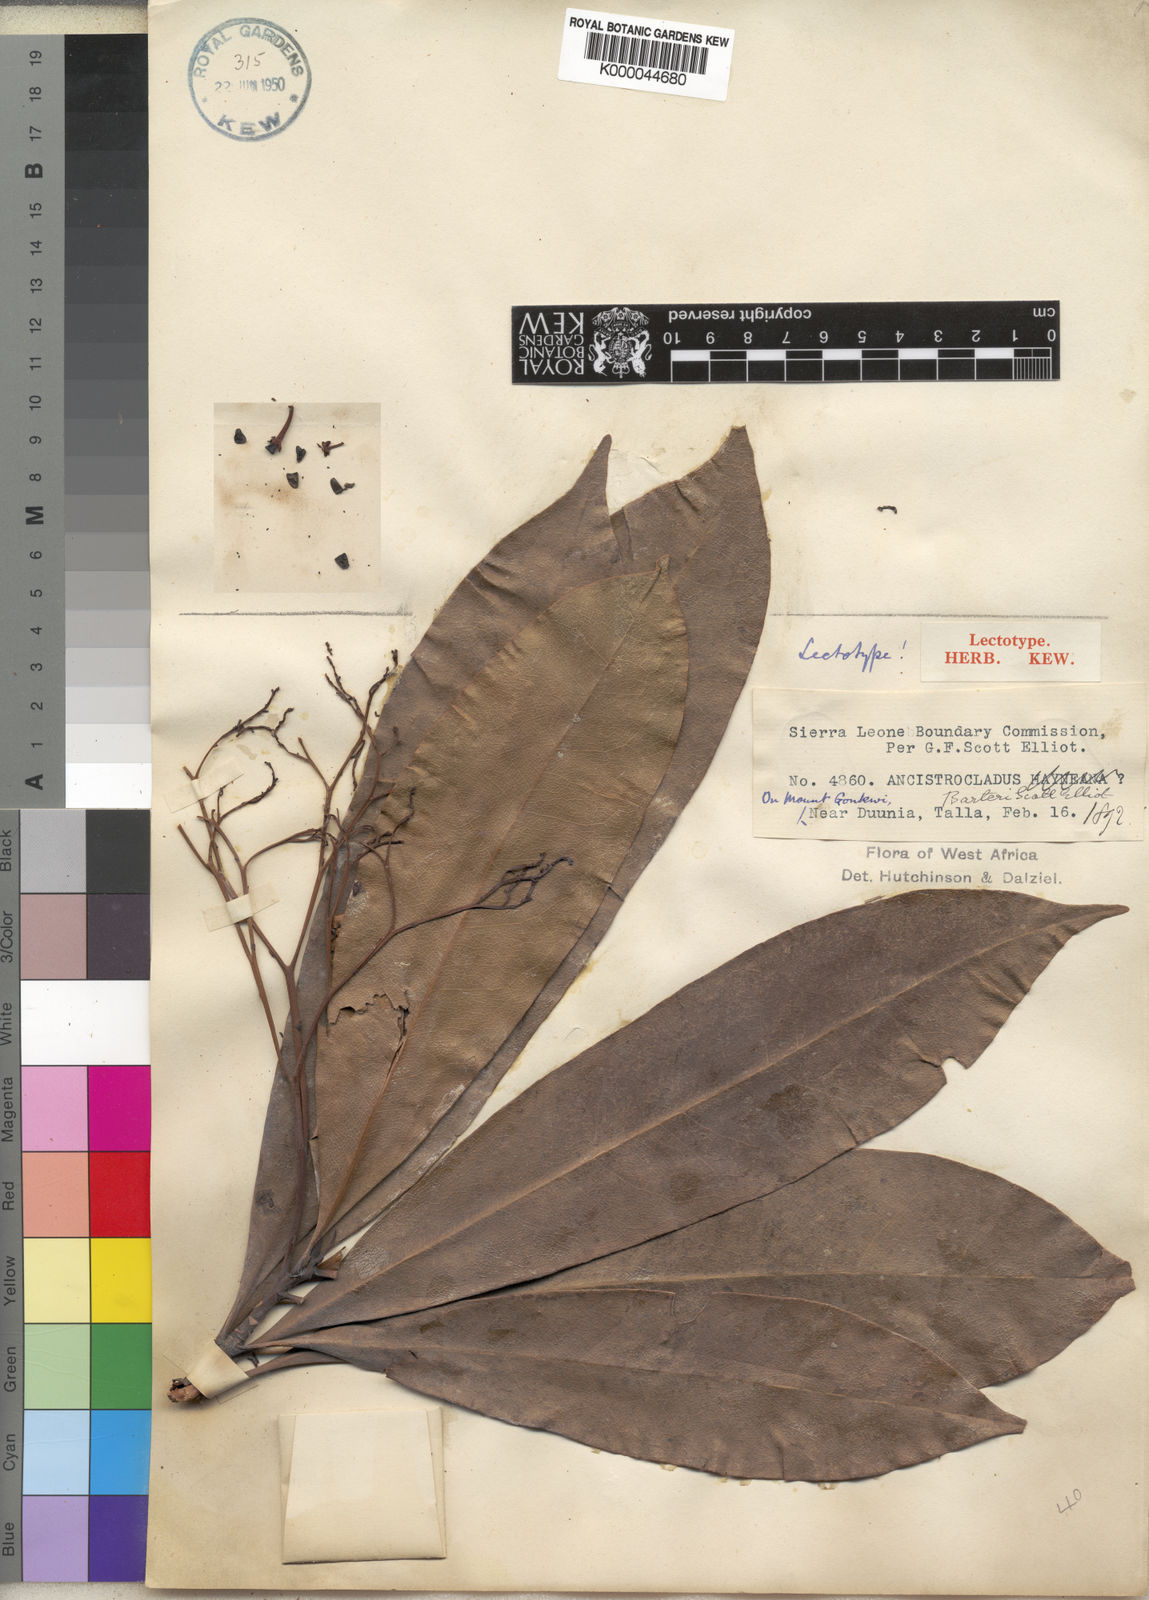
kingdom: Plantae
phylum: Tracheophyta
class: Magnoliopsida
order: Caryophyllales
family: Ancistrocladaceae
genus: Ancistrocladus
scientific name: Ancistrocladus barteri
